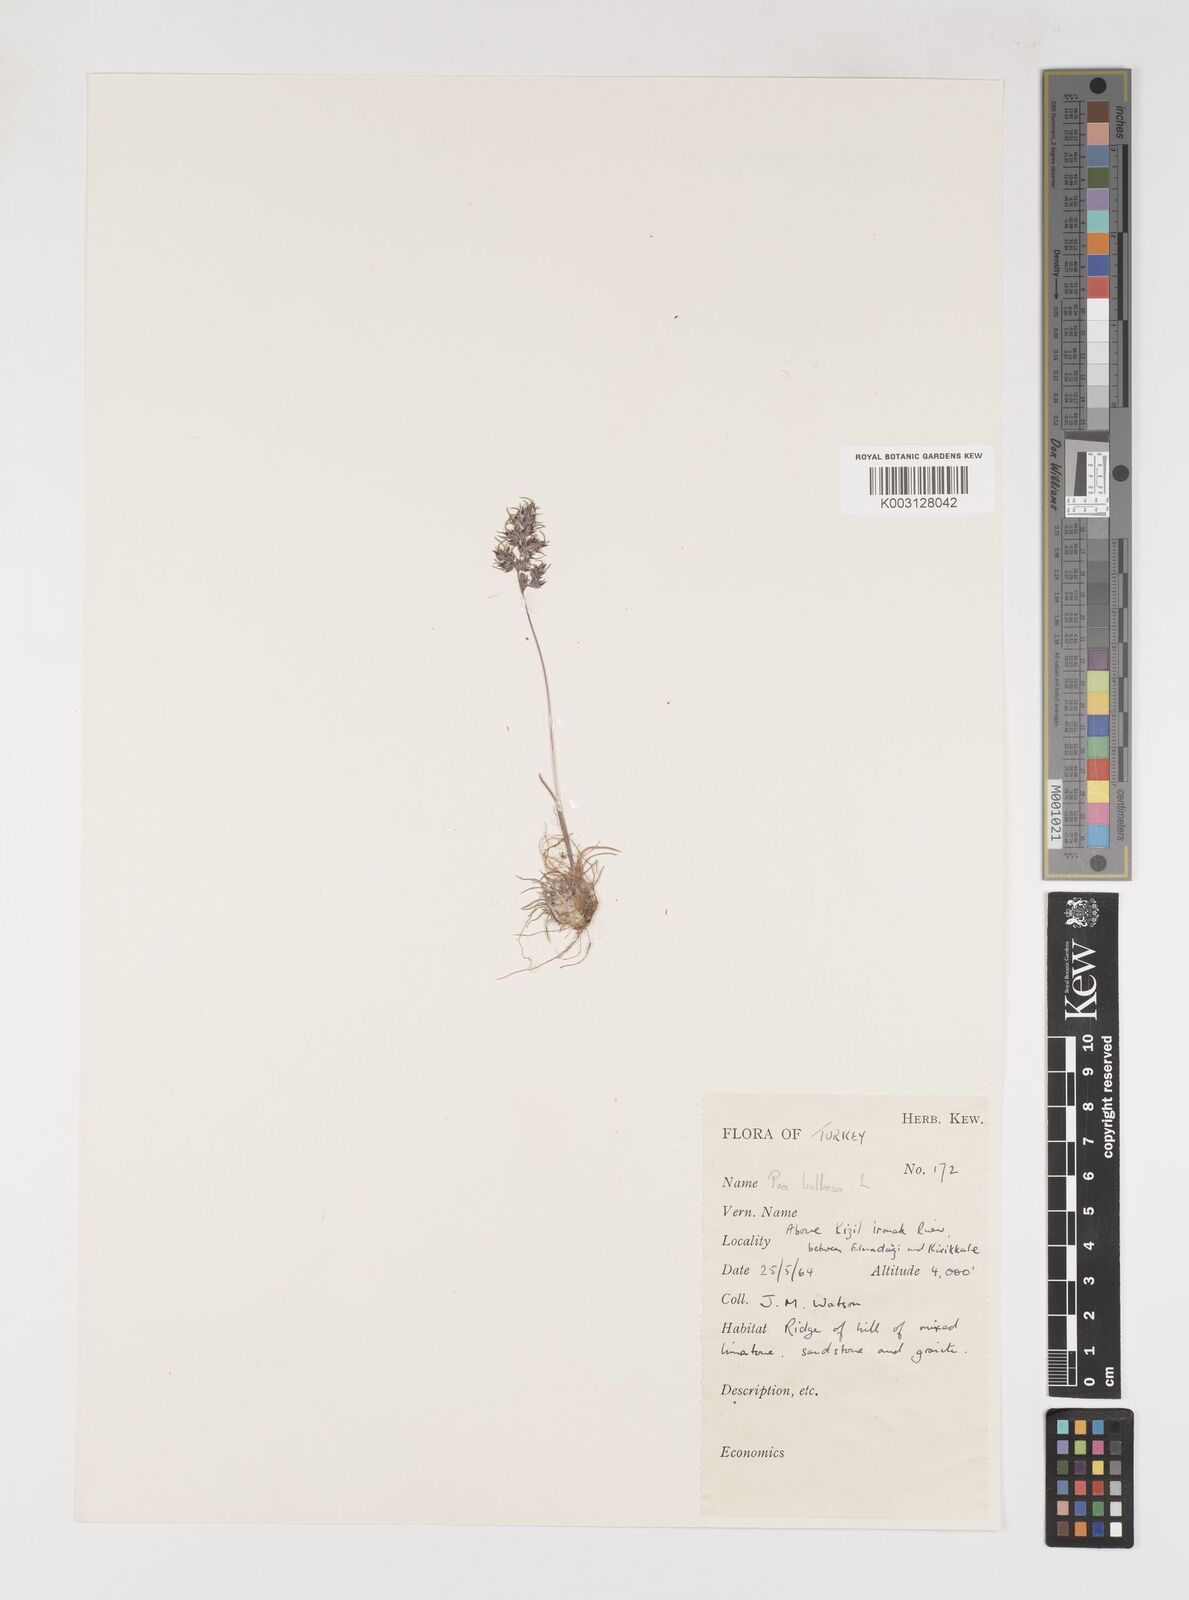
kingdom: Plantae
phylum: Tracheophyta
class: Liliopsida
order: Poales
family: Poaceae
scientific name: Poaceae
